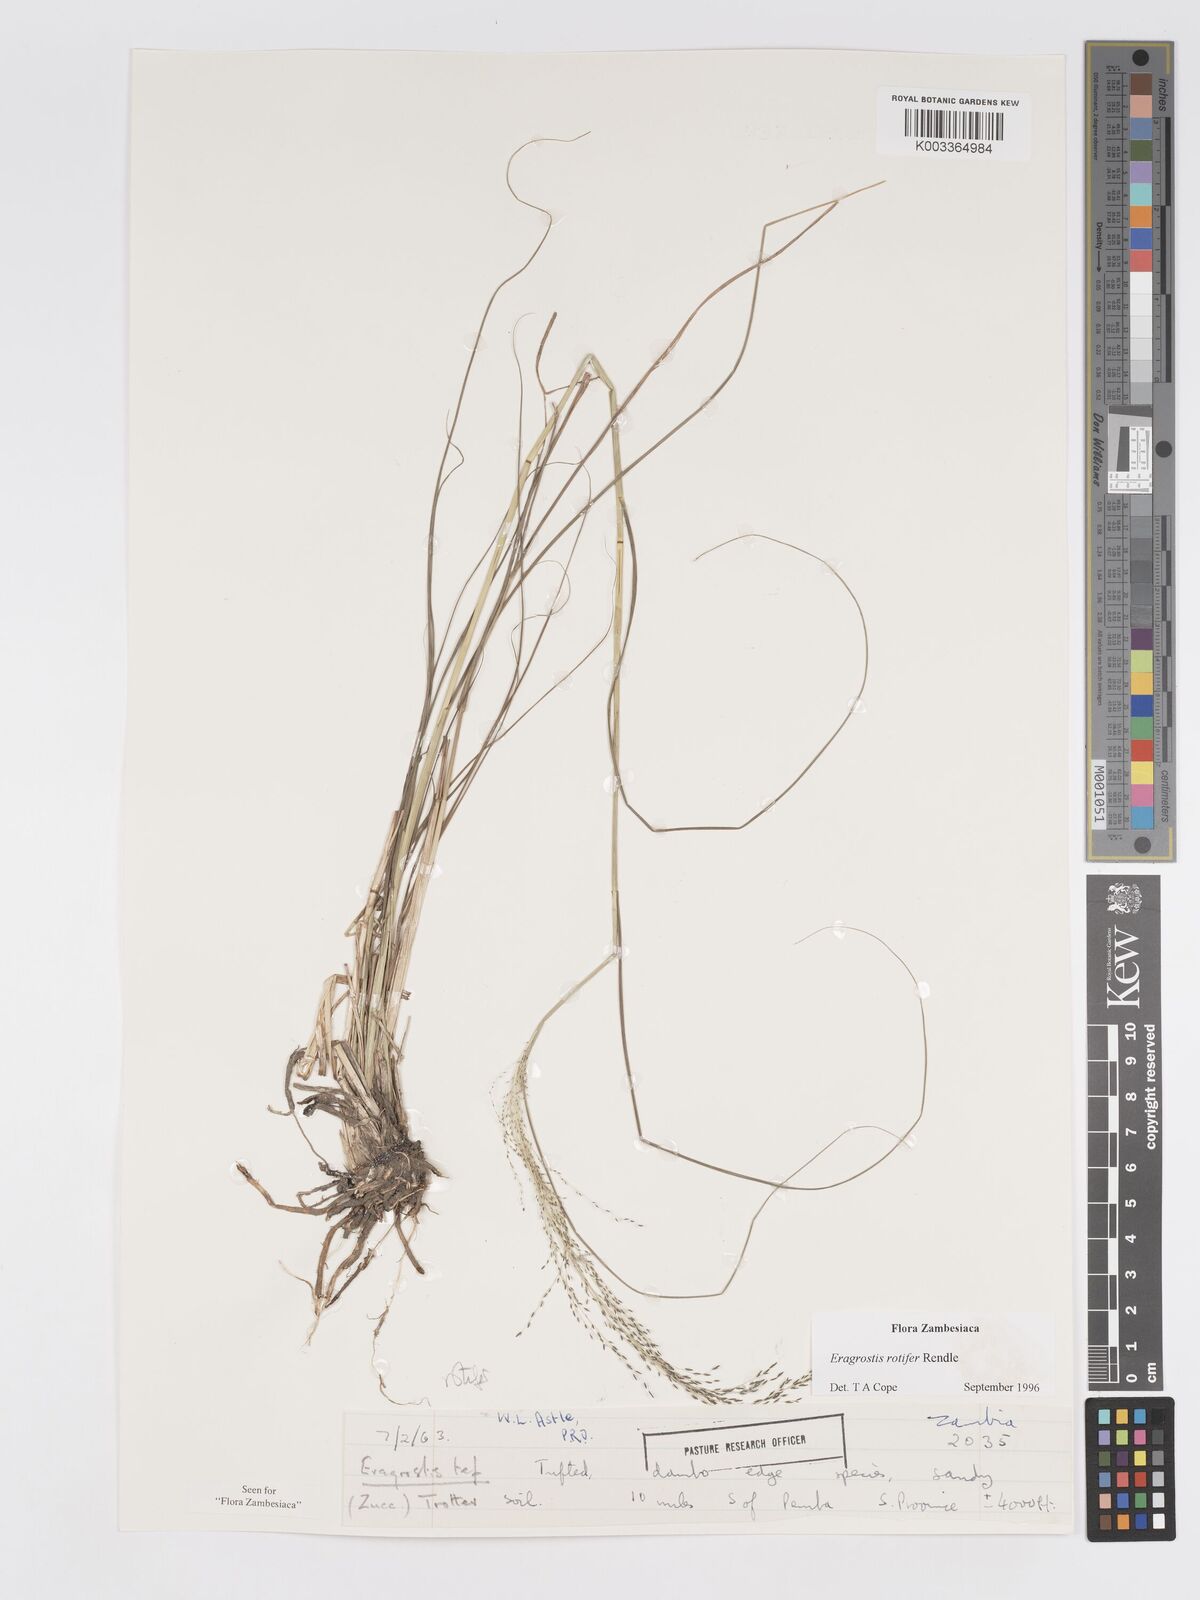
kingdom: Plantae
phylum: Tracheophyta
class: Liliopsida
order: Poales
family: Poaceae
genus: Eragrostis
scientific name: Eragrostis rotifer
